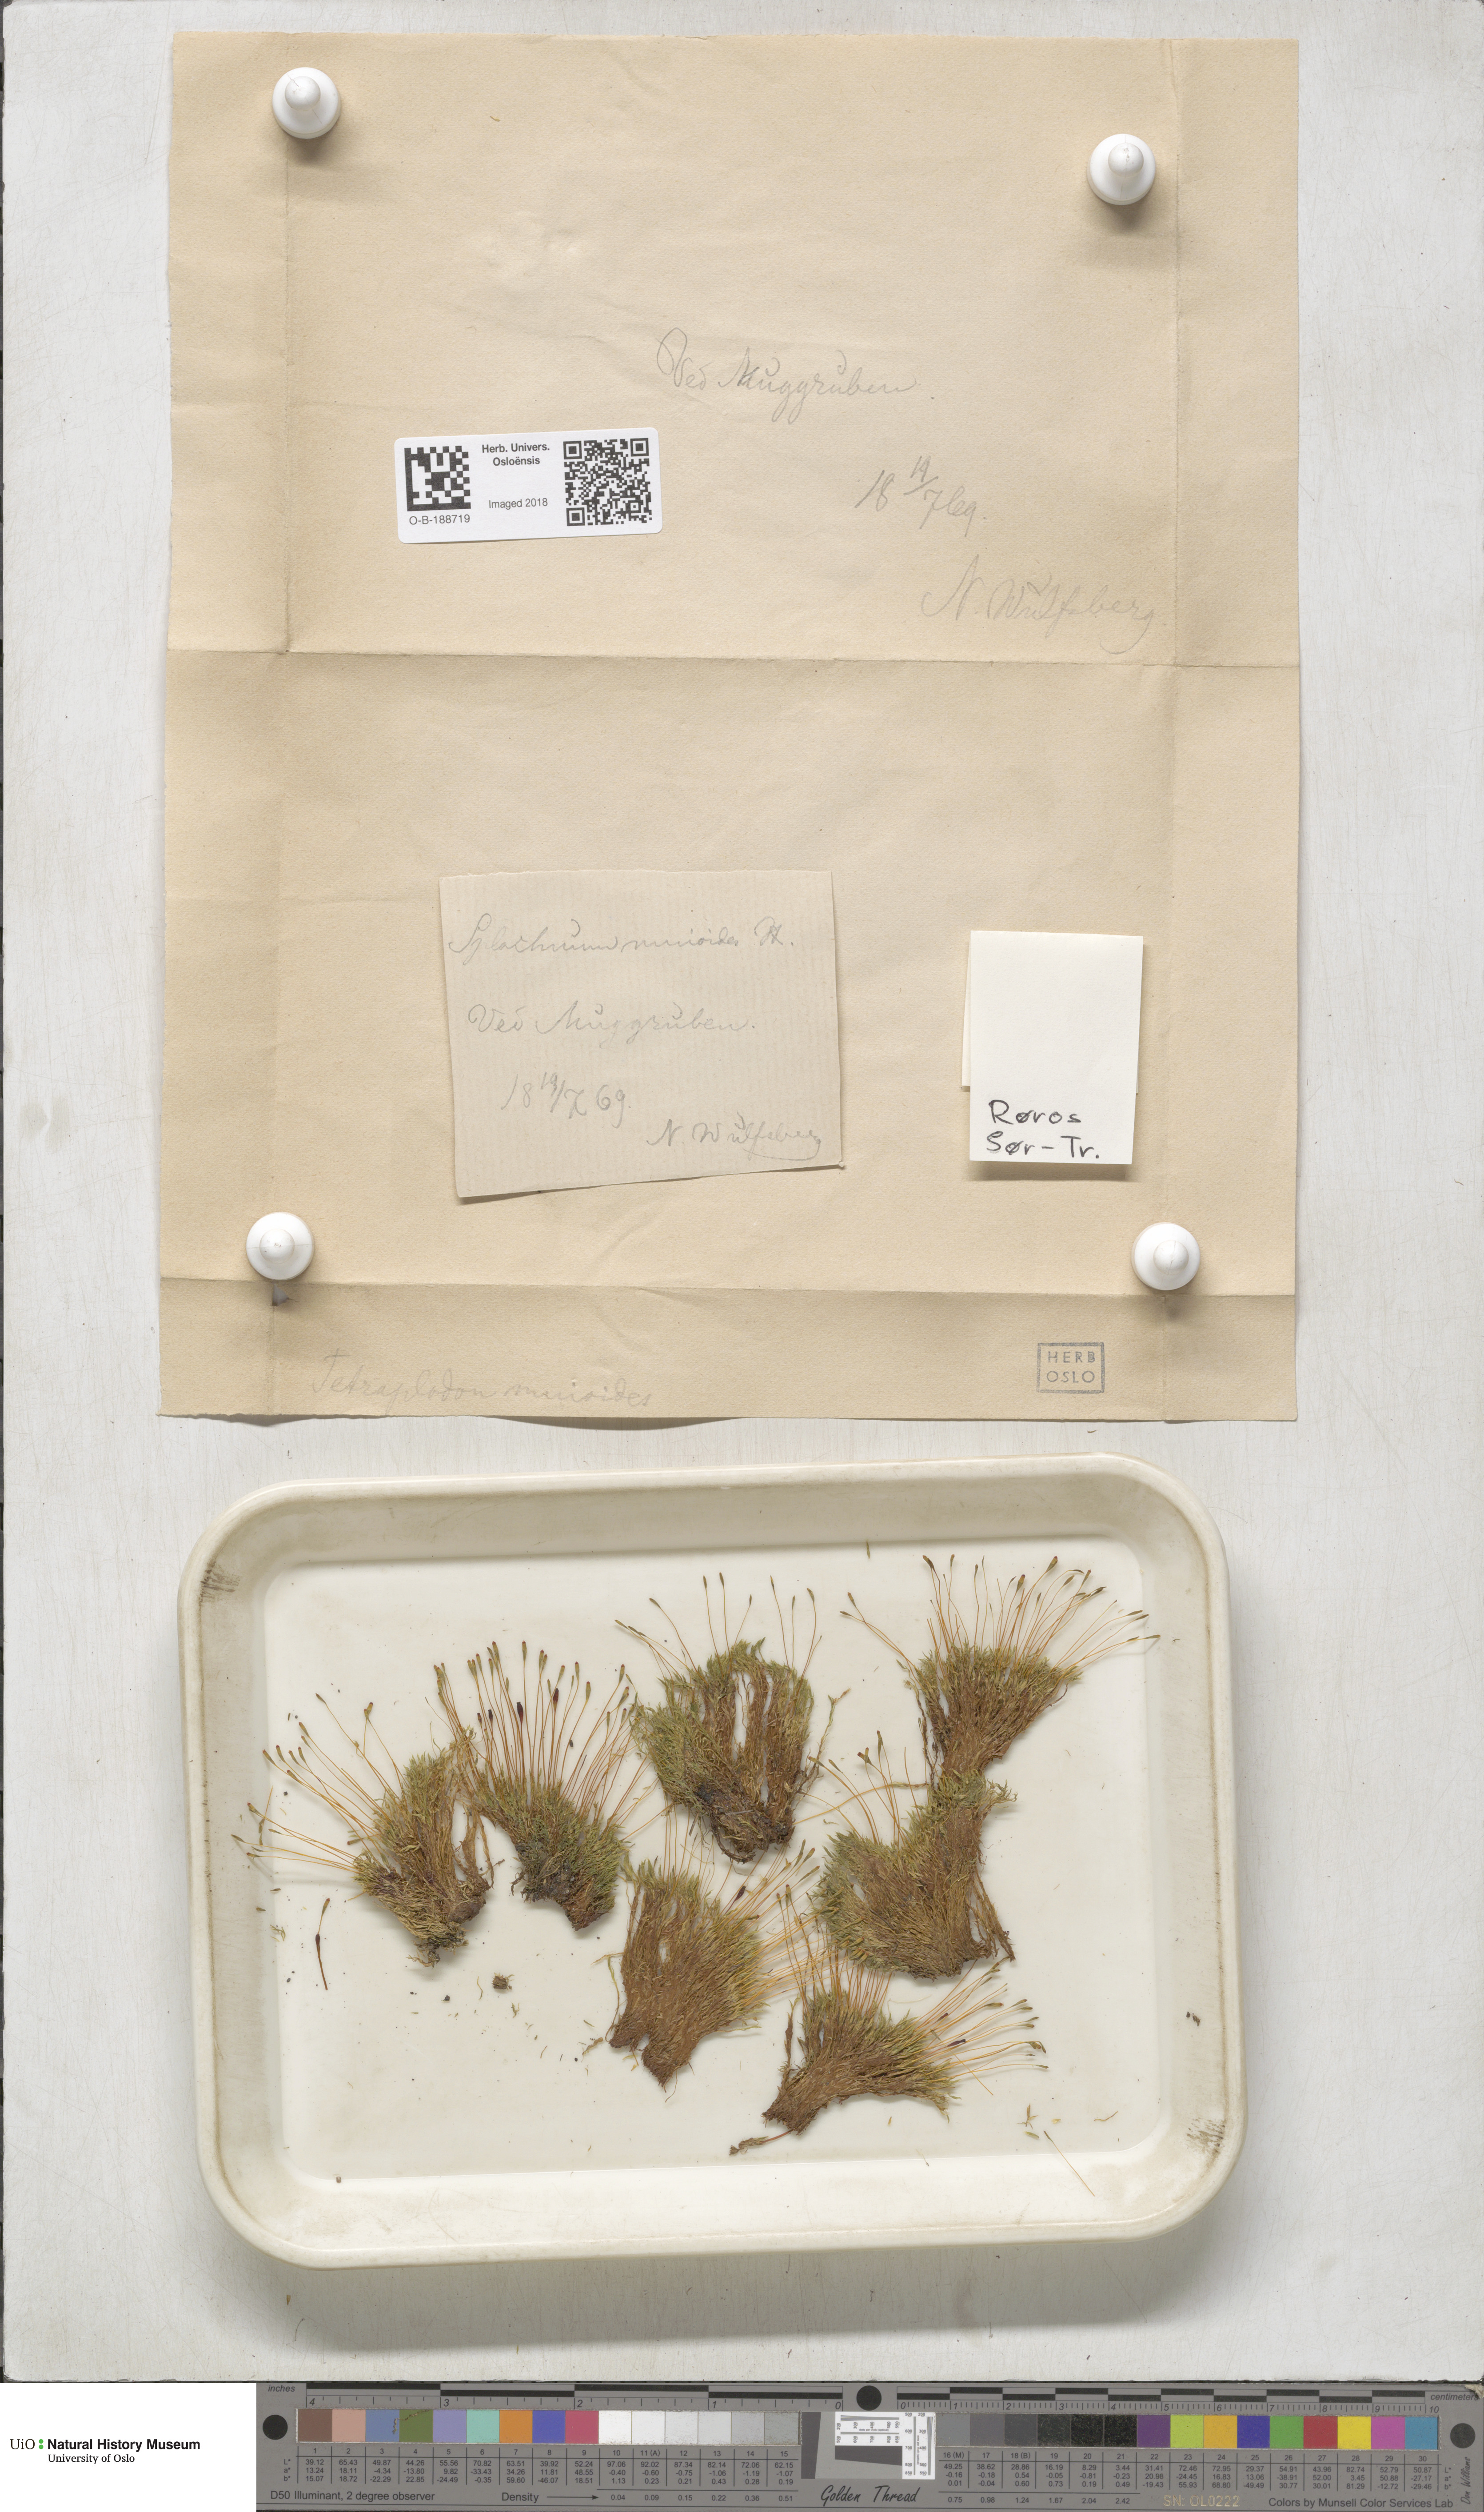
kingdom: Plantae
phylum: Bryophyta
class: Bryopsida
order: Splachnales
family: Splachnaceae
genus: Tetraplodon
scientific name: Tetraplodon mnioides
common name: Entire-leaved nitrogen moss
